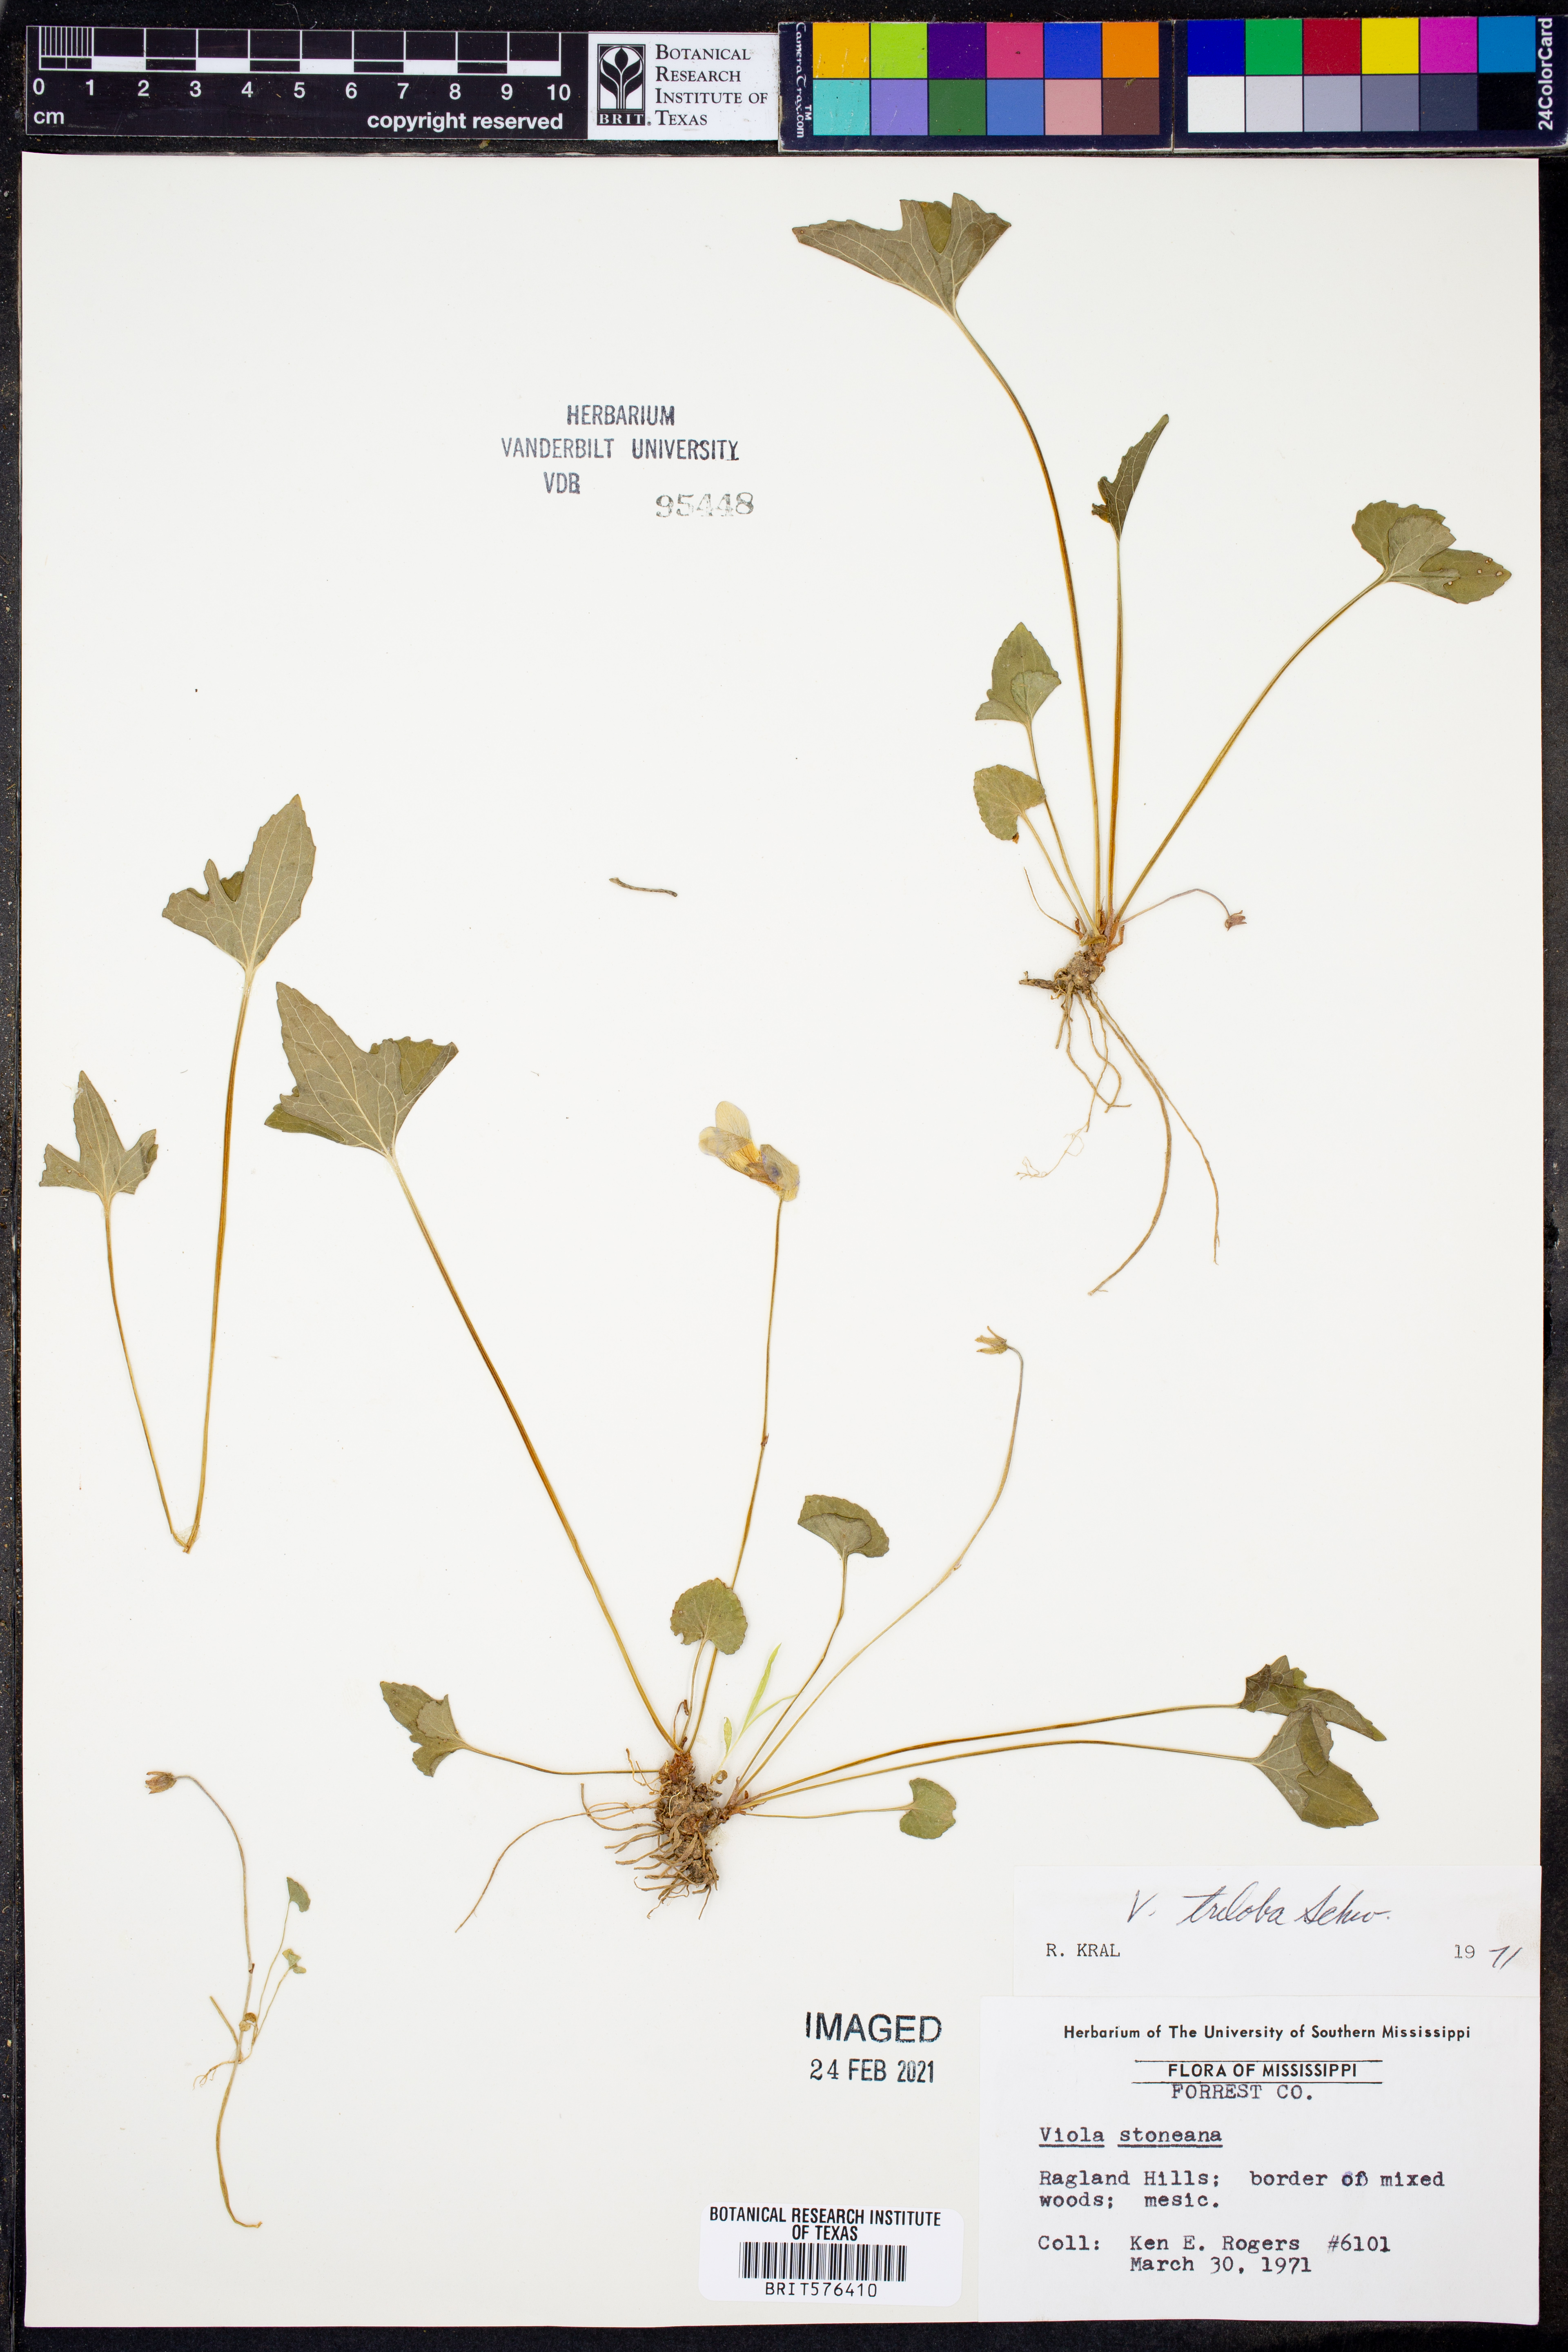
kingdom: Plantae
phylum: Tracheophyta
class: Magnoliopsida
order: Malpighiales
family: Violaceae
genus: Viola
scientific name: Viola palmata
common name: Early blue violet
